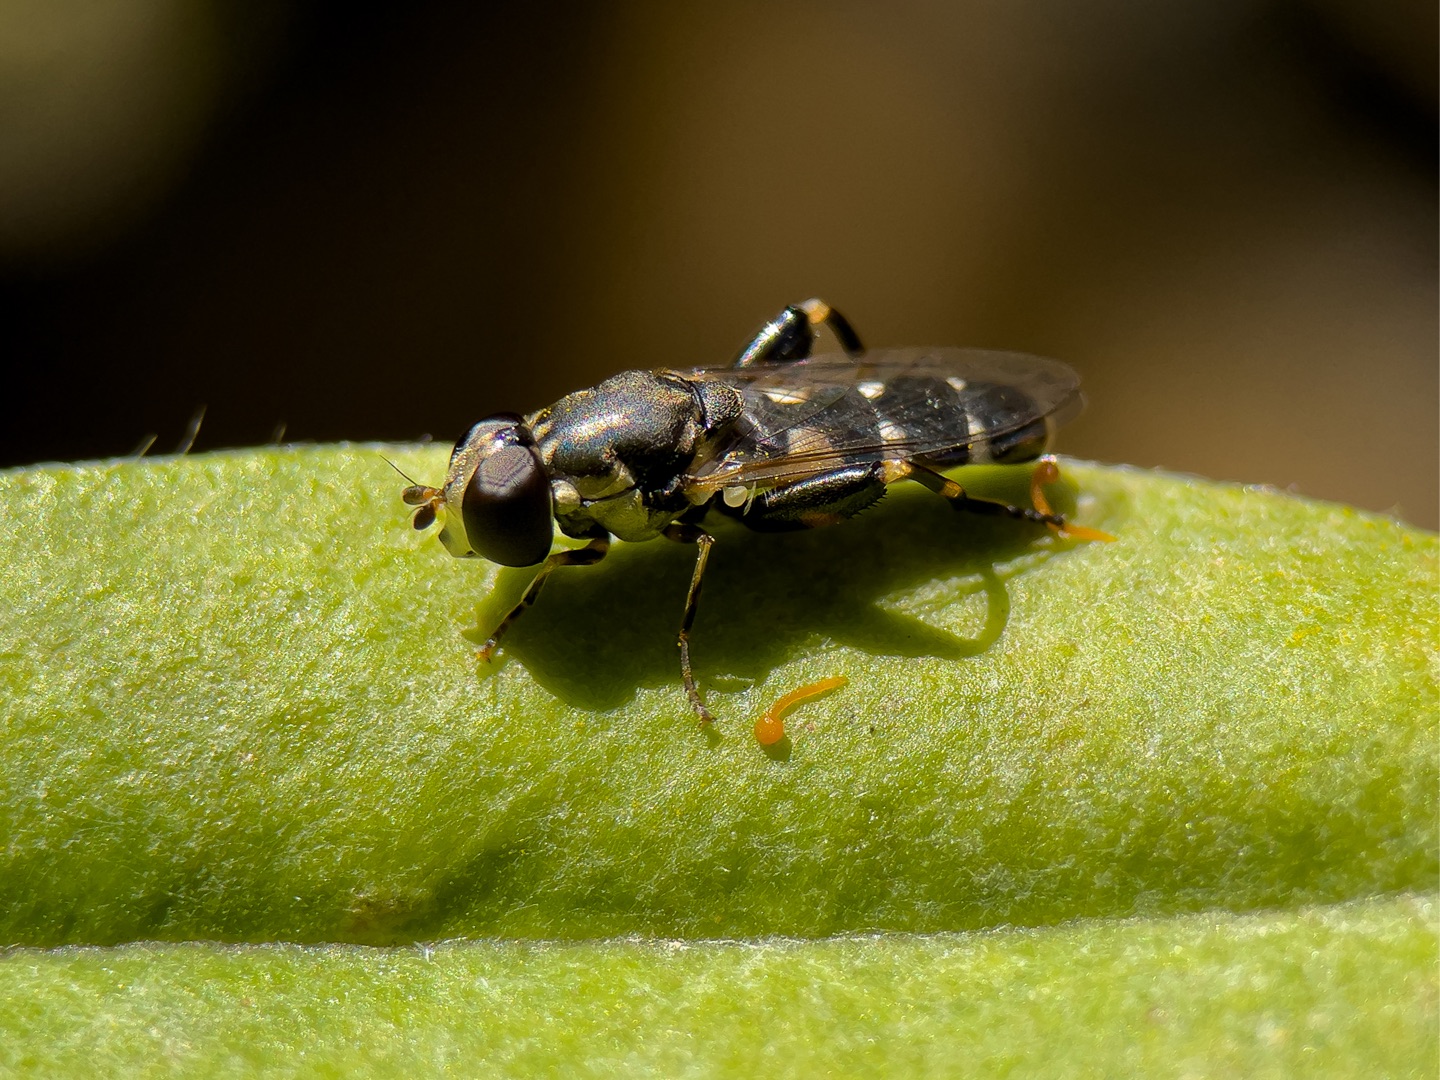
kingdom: Animalia
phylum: Arthropoda
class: Insecta
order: Diptera
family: Syrphidae
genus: Syritta
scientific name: Syritta pipiens
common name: Kompost-svirreflue
